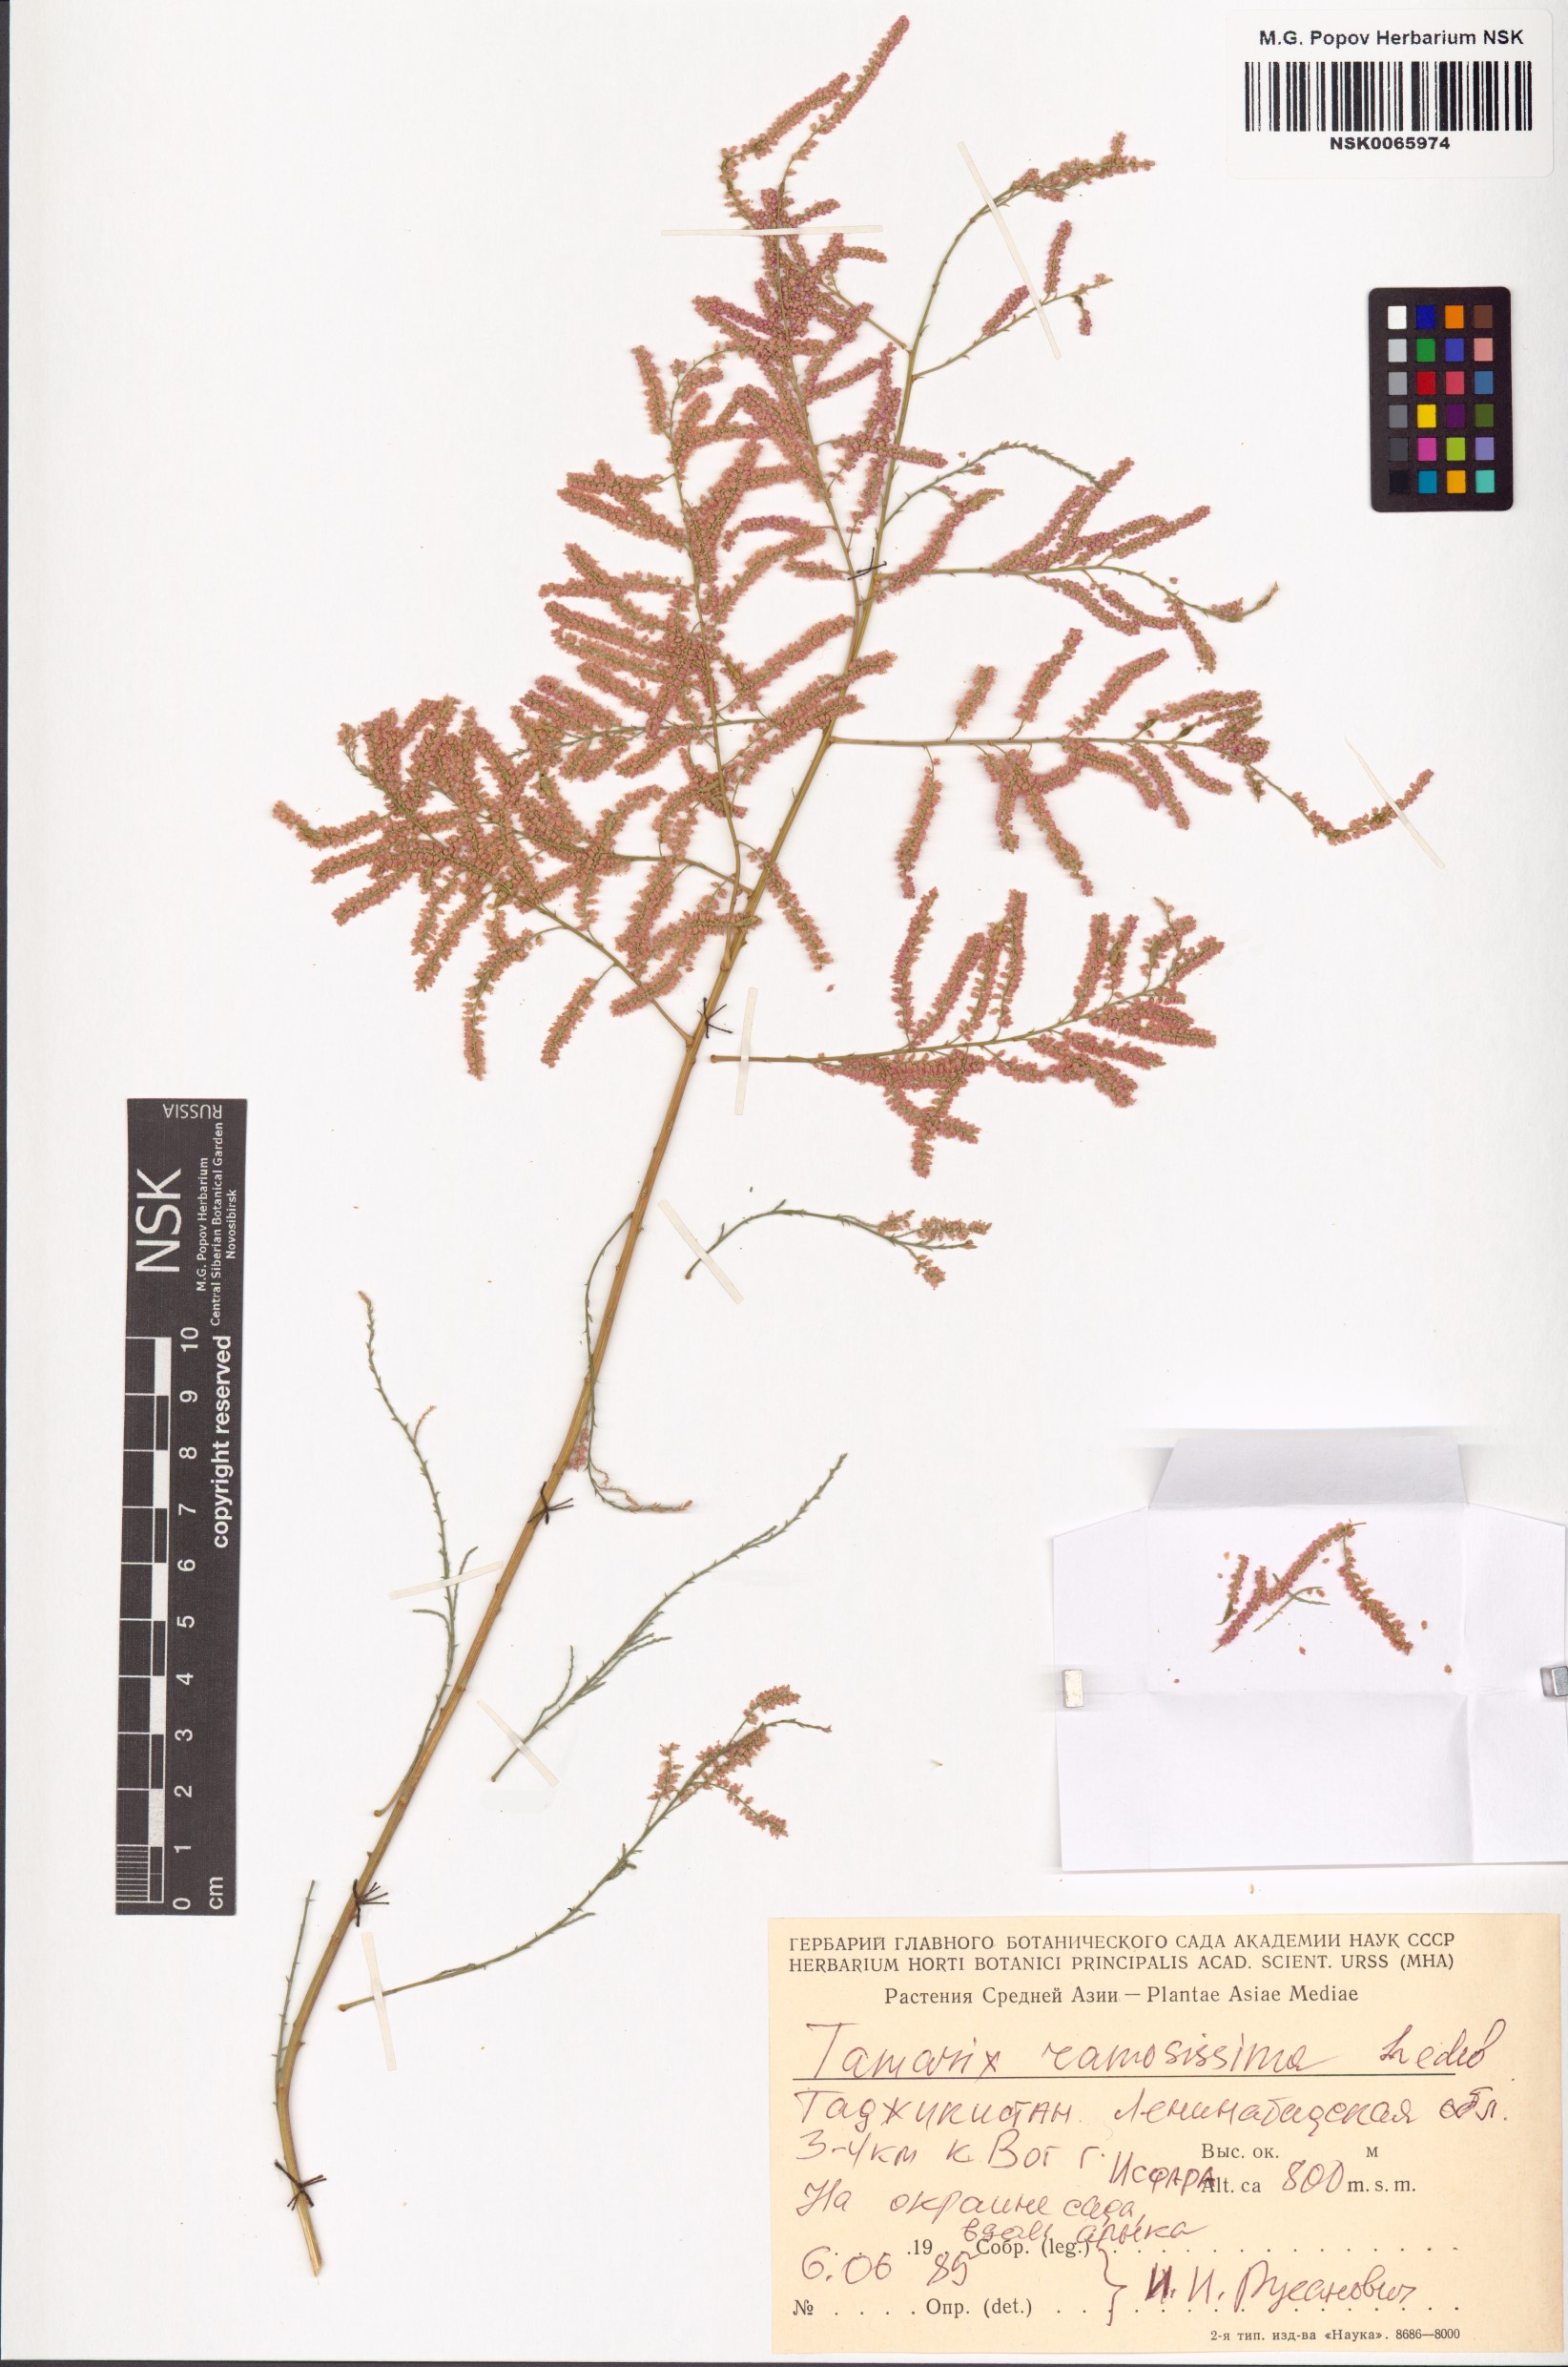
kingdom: Plantae
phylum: Tracheophyta
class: Magnoliopsida
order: Caryophyllales
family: Tamaricaceae
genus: Tamarix
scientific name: Tamarix ramosissima
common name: Pink tamarisk
